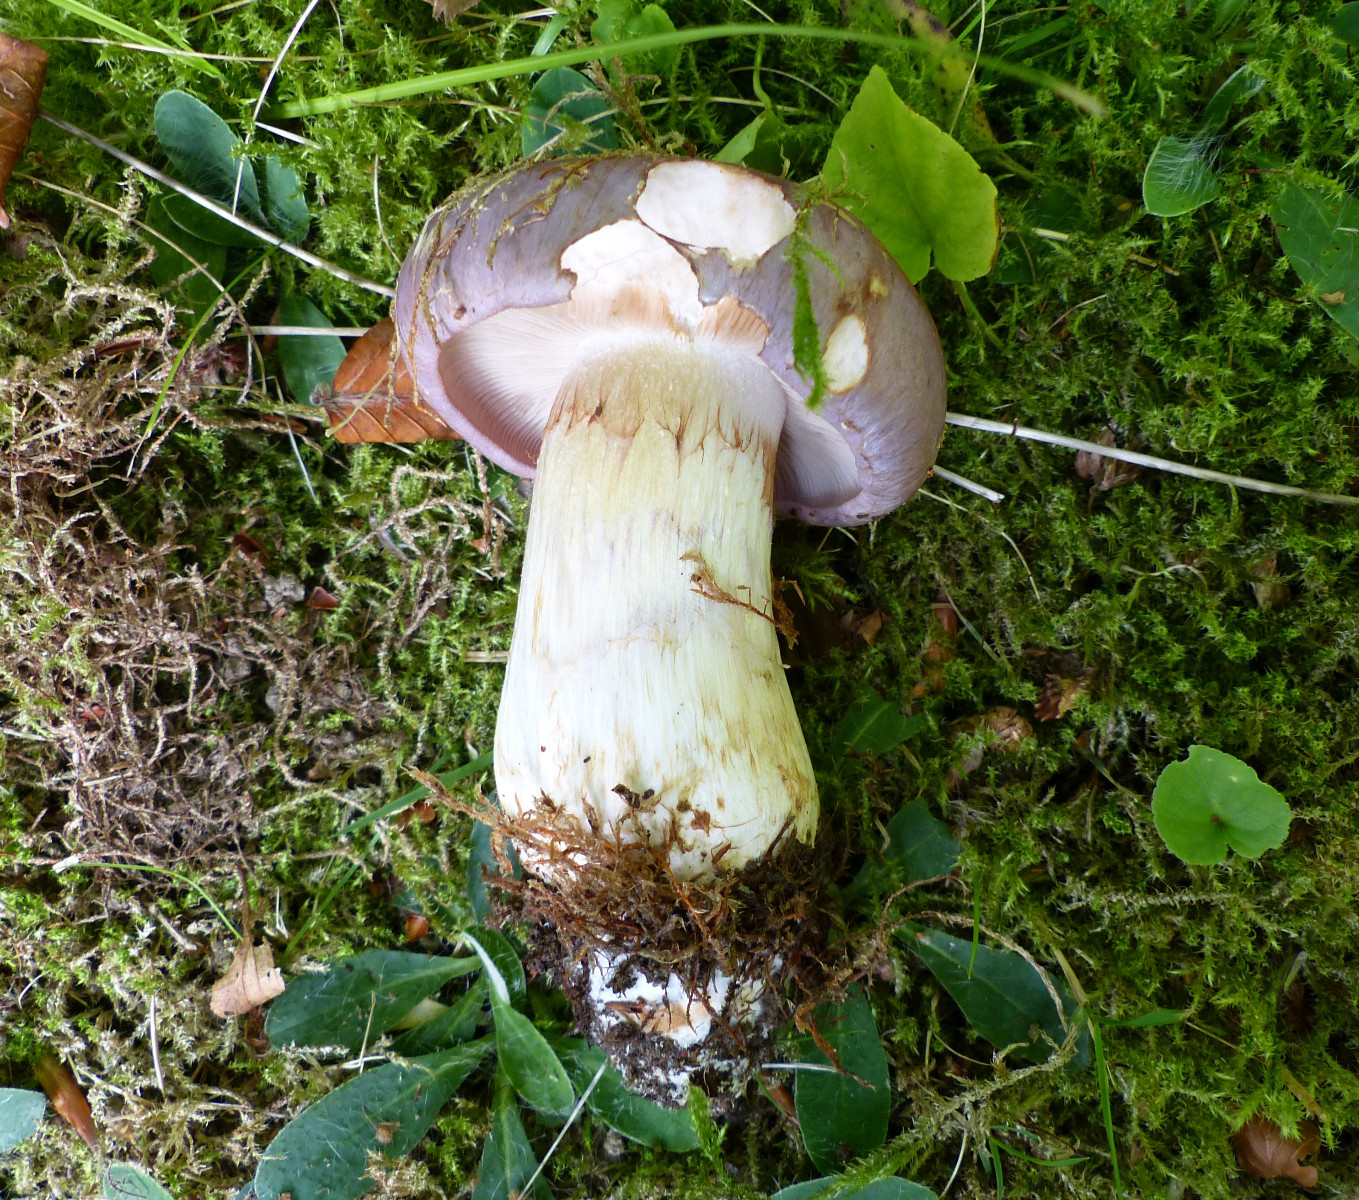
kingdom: Fungi
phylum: Basidiomycota
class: Agaricomycetes
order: Agaricales
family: Cortinariaceae
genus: Phlegmacium
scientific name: Phlegmacium balteatocumatile
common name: violettrådet slørhat
